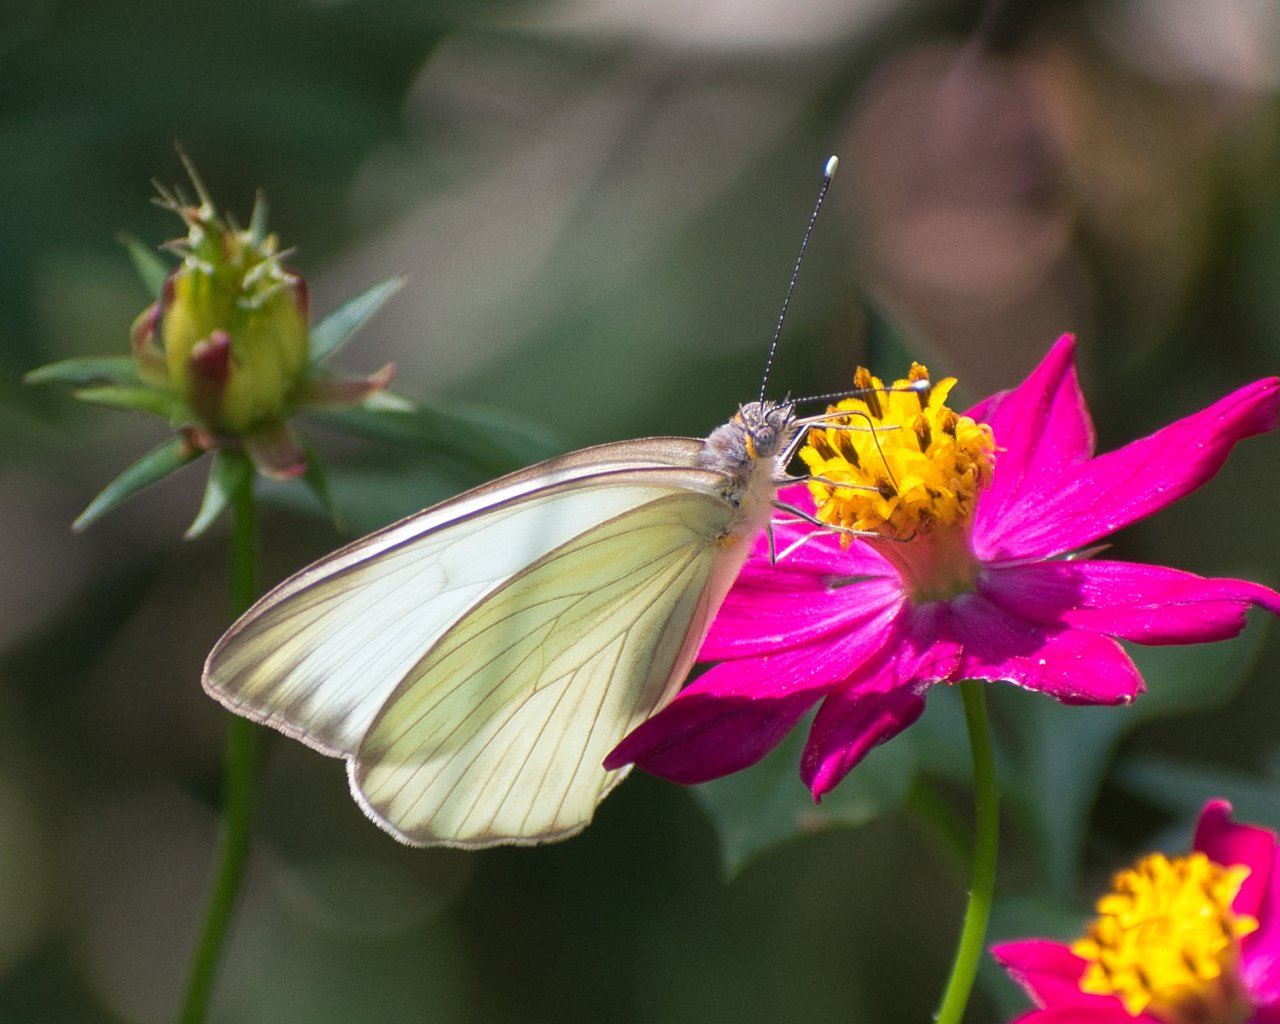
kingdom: Animalia
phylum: Arthropoda
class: Insecta
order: Lepidoptera
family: Pieridae
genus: Ascia
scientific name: Ascia monuste
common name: Great Southern White
